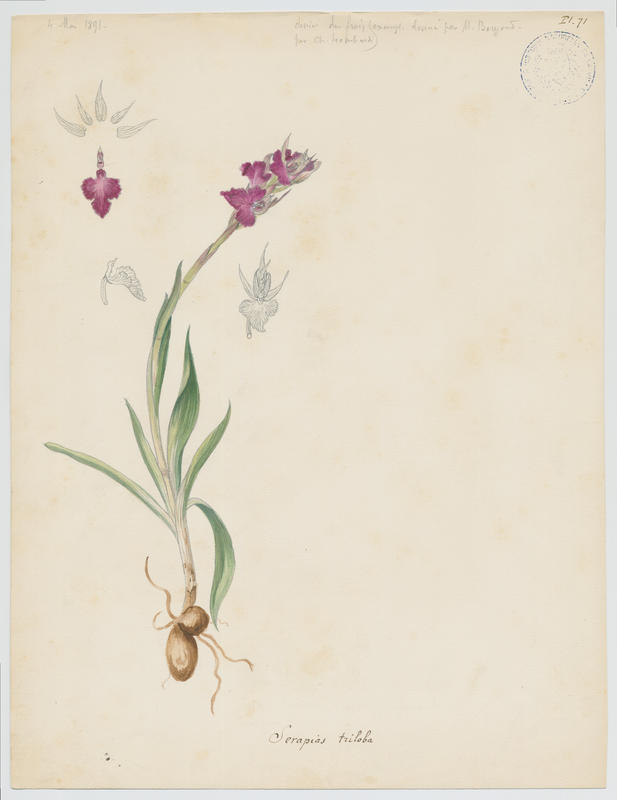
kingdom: Plantae
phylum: Tracheophyta
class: Liliopsida
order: Asparagales
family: Orchidaceae
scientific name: Orchidaceae
